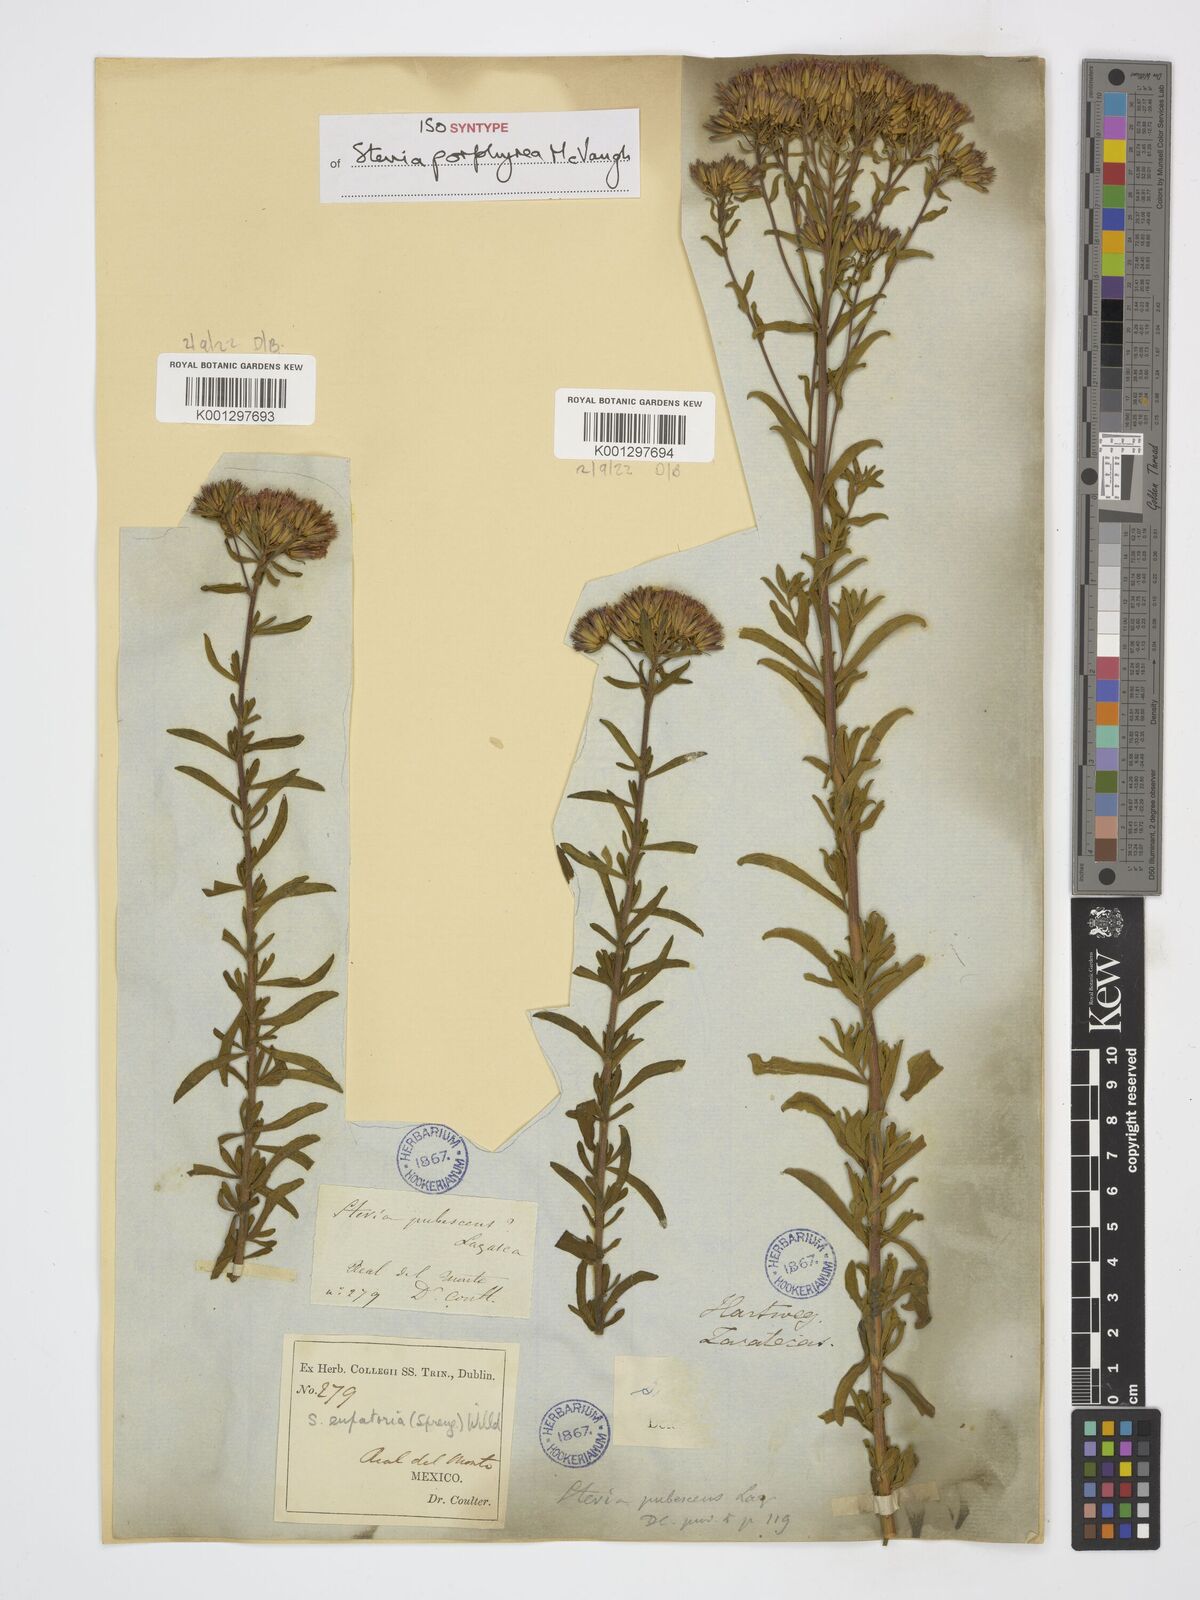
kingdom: Plantae
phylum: Tracheophyta
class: Magnoliopsida
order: Asterales
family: Asteraceae
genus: Stevia
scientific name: Stevia porphyrea
